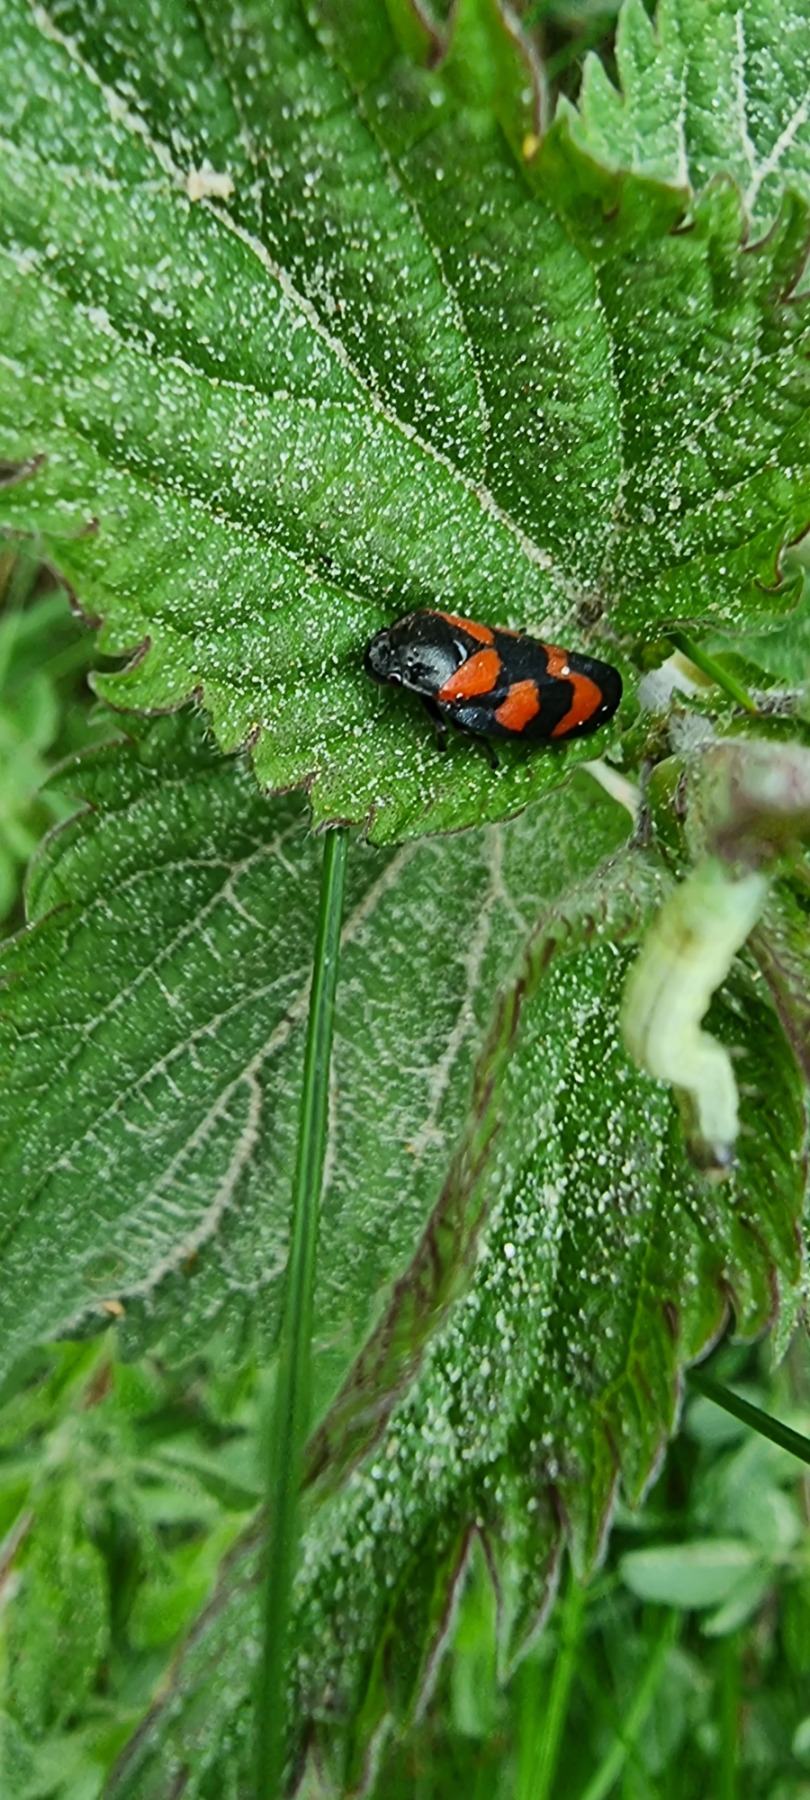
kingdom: Animalia
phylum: Arthropoda
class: Insecta
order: Hemiptera
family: Cercopidae
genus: Cercopis
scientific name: Cercopis vulnerata
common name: Blodcikade
